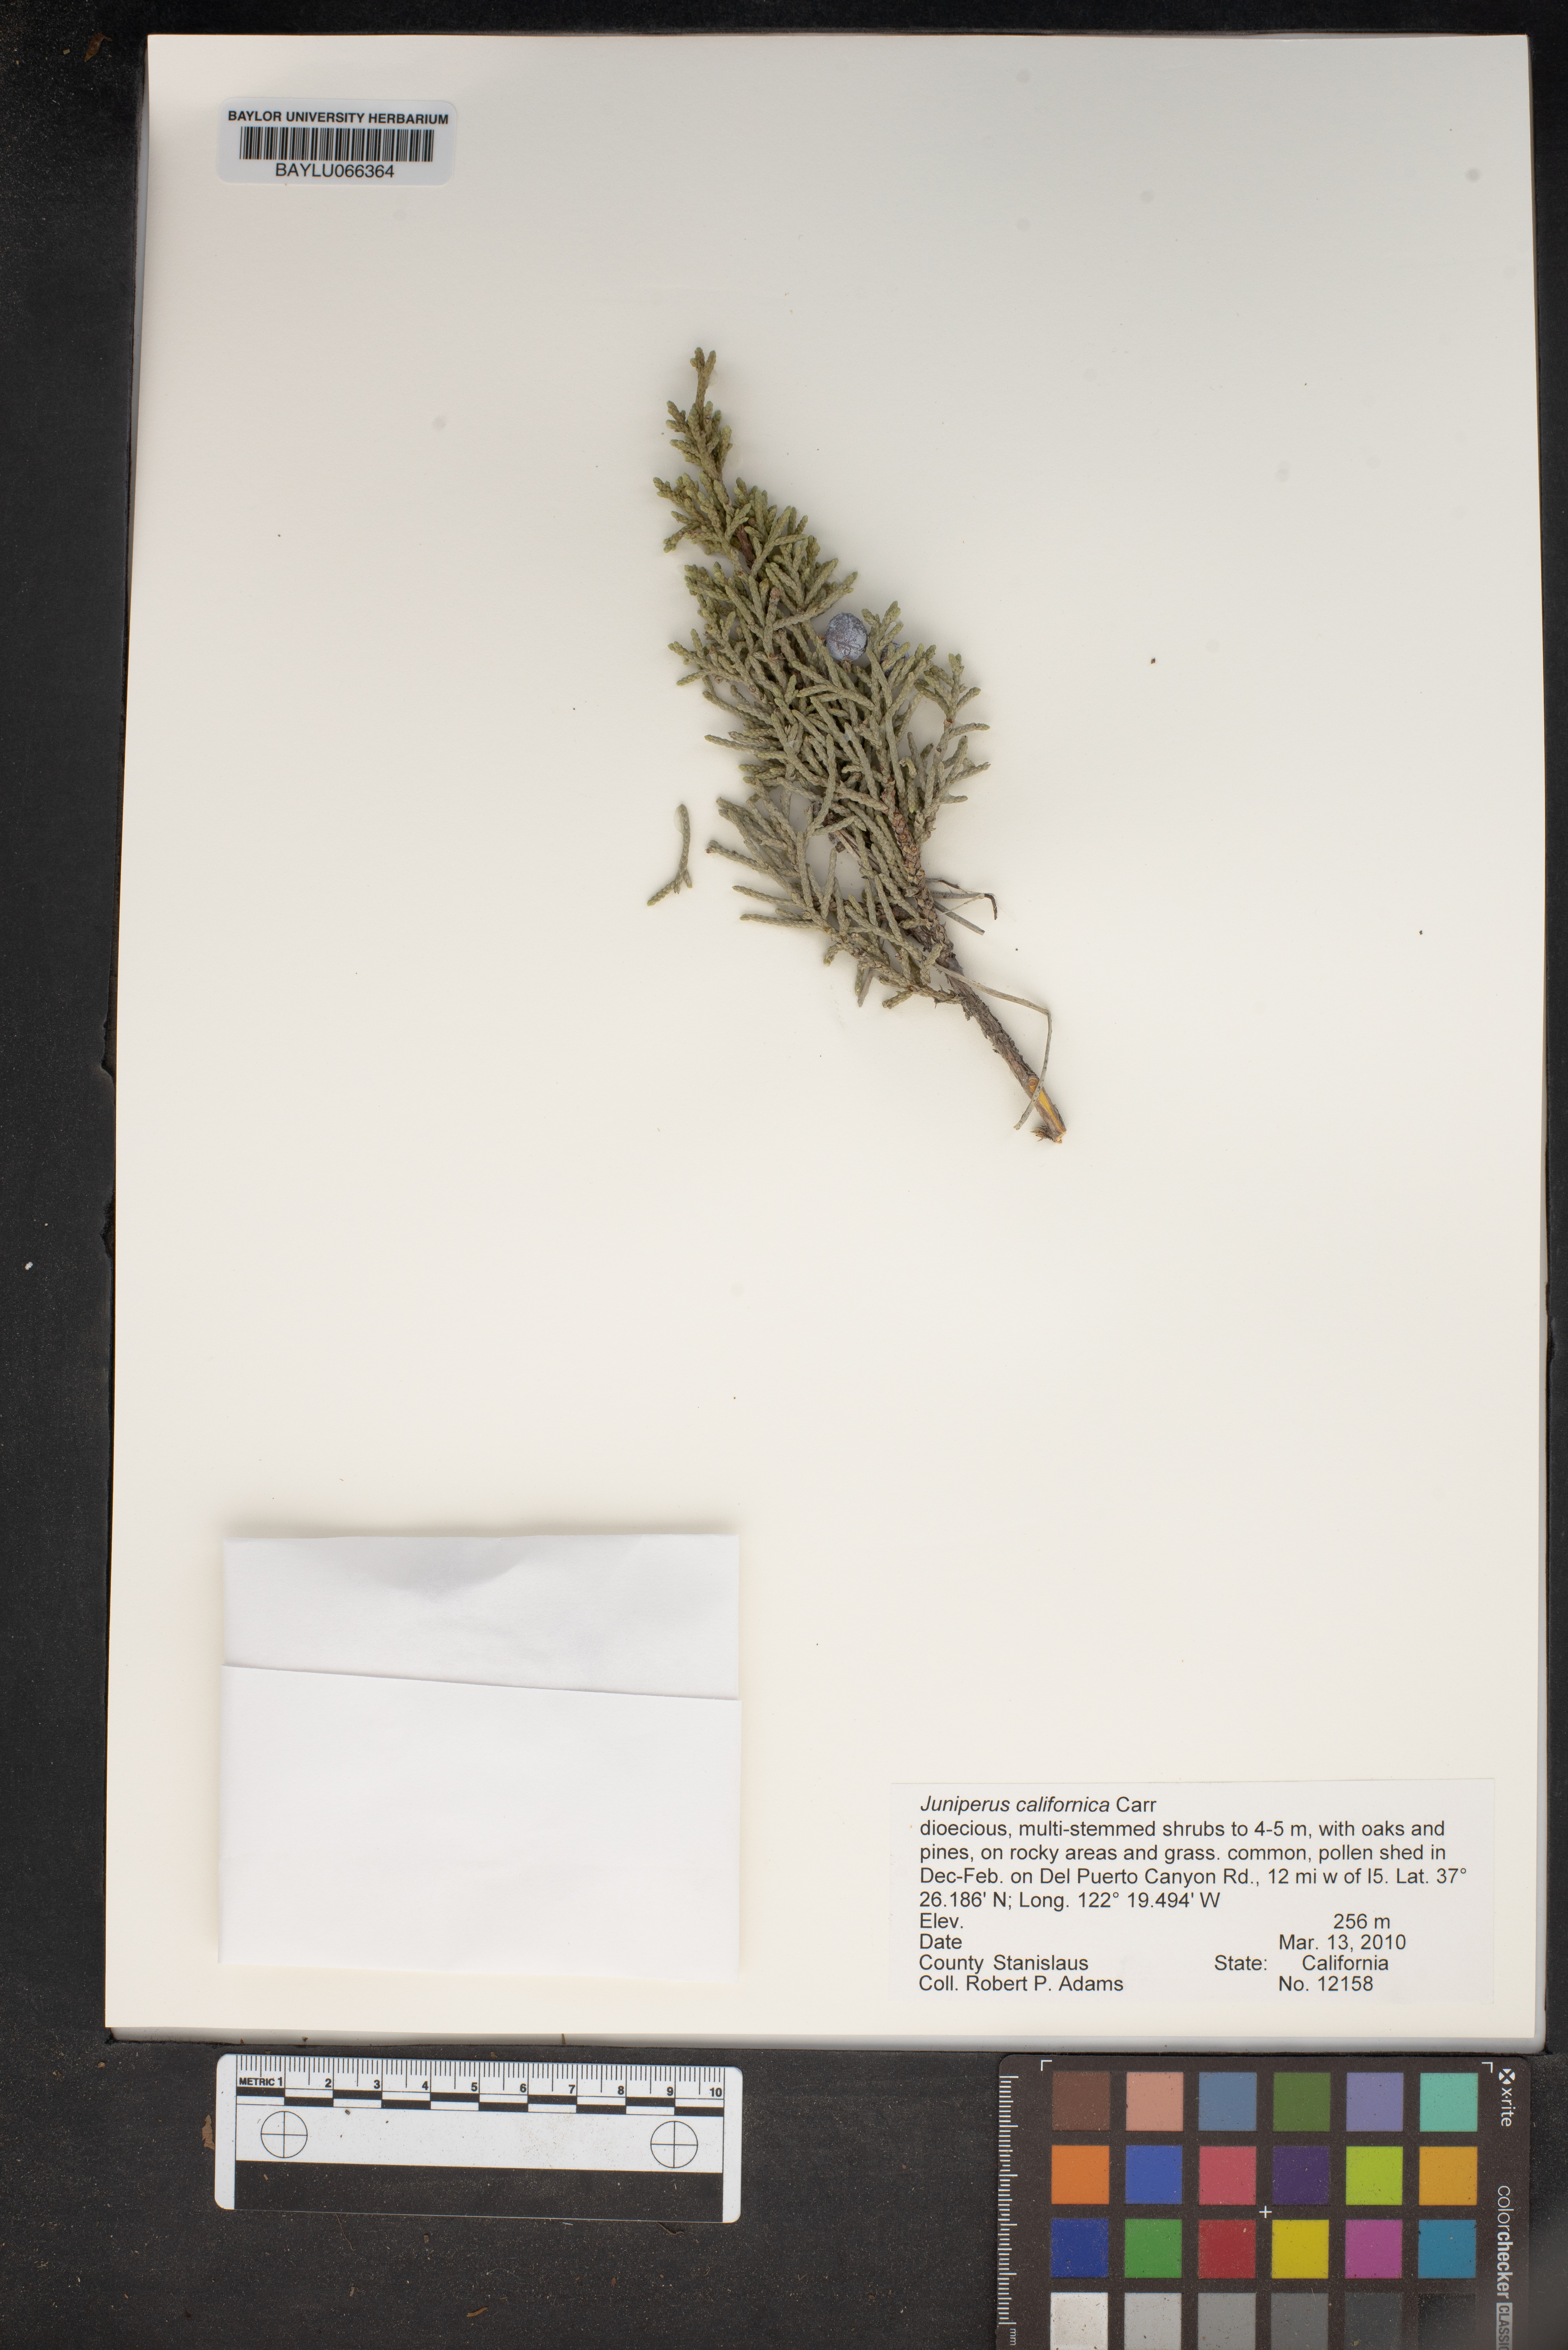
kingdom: Plantae
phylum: Tracheophyta
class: Pinopsida
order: Pinales
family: Cupressaceae
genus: Juniperus
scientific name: Juniperus californica
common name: California juniper
